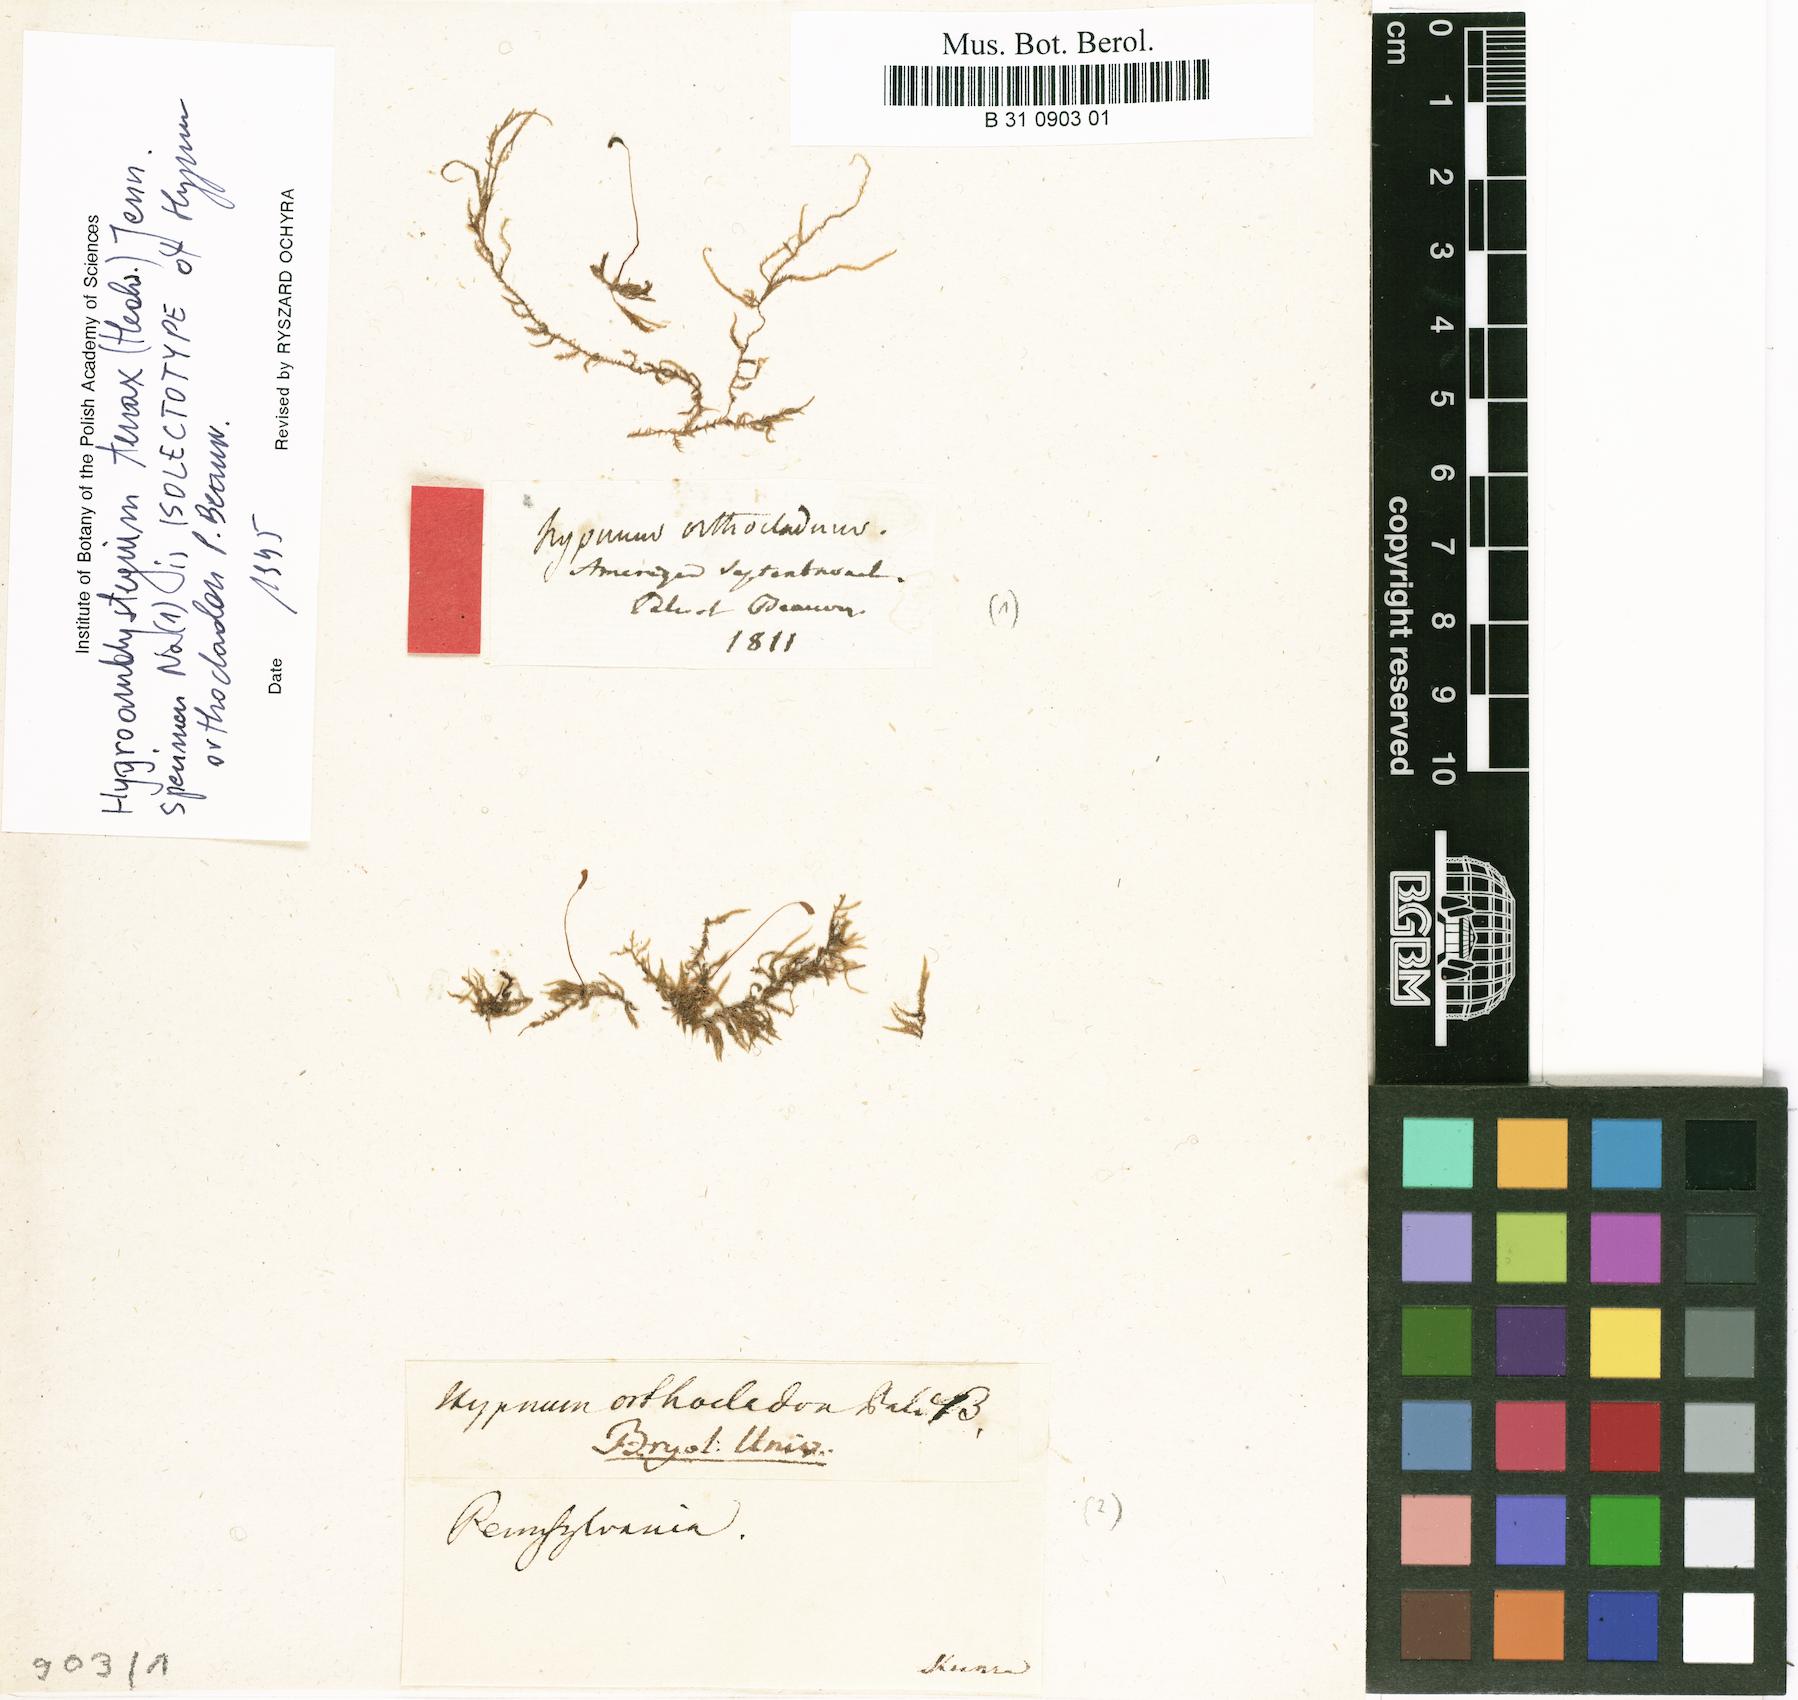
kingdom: Plantae
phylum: Bryophyta
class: Bryopsida
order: Hypnales
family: Amblystegiaceae
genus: Hygroamblystegium
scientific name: Hygroamblystegium tenax
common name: Fountain feather-moss
